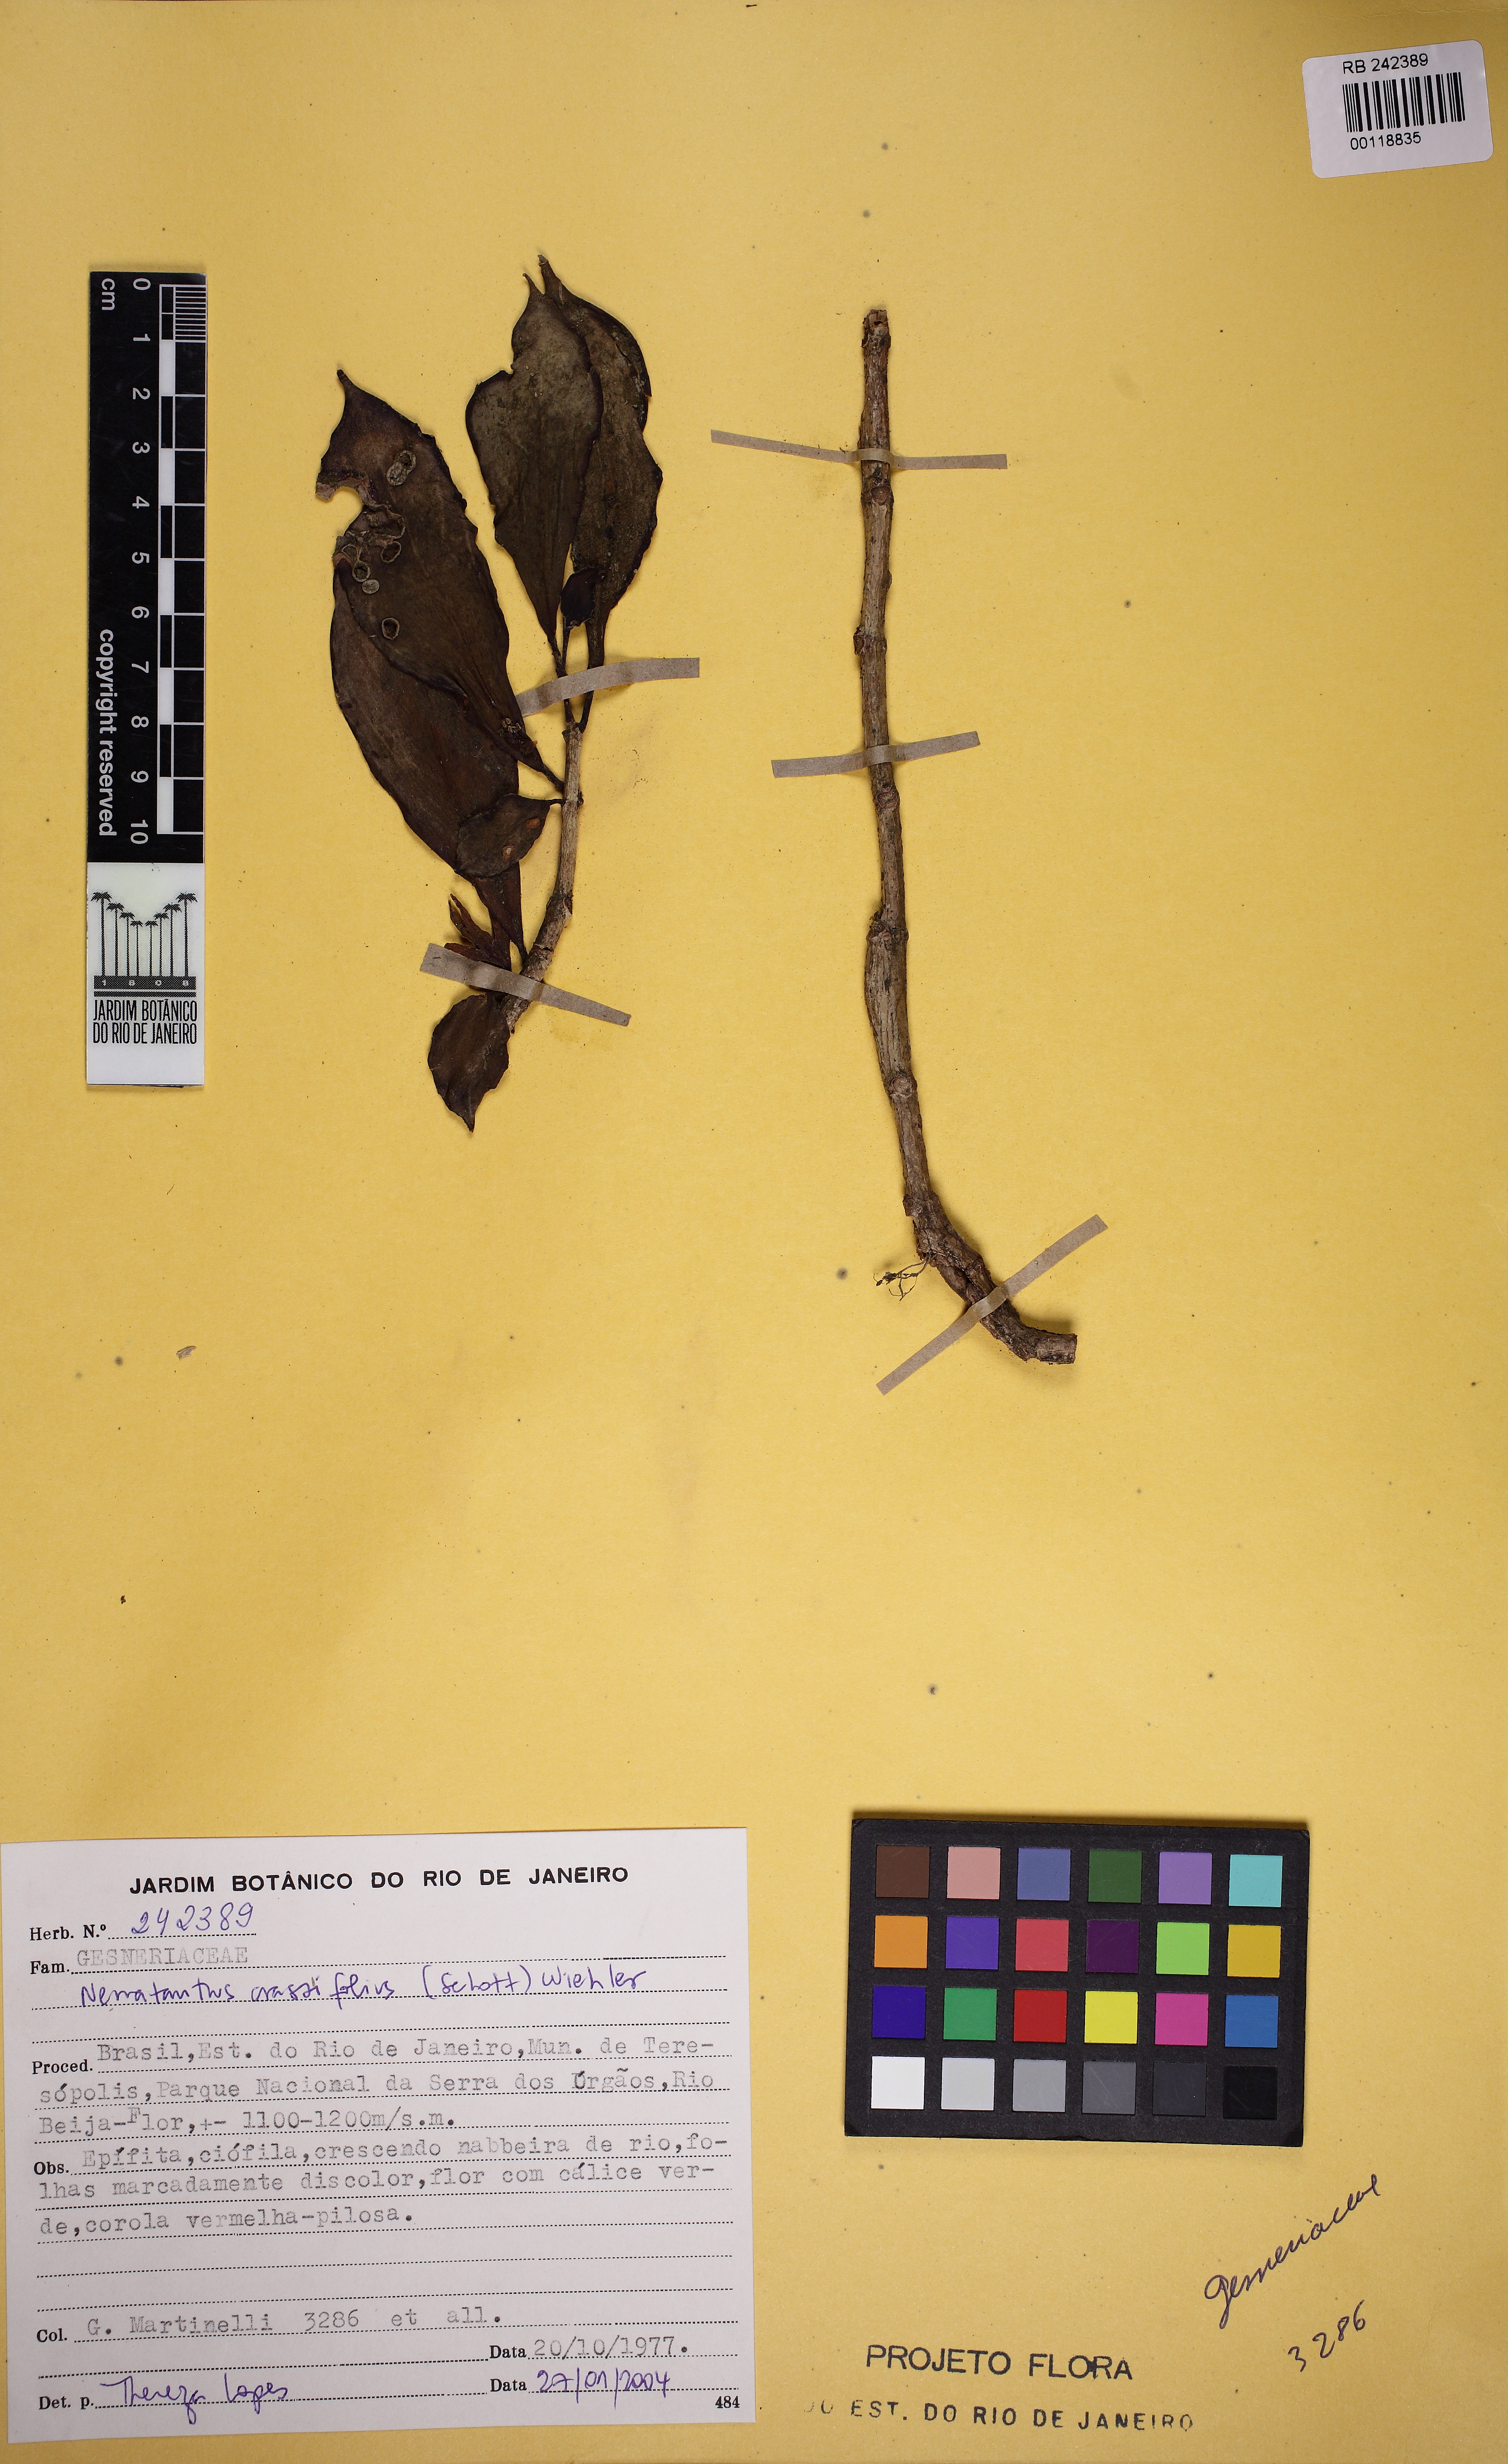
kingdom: Plantae
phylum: Tracheophyta
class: Magnoliopsida
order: Lamiales
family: Gesneriaceae
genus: Nematanthus
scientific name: Nematanthus crassifolius
